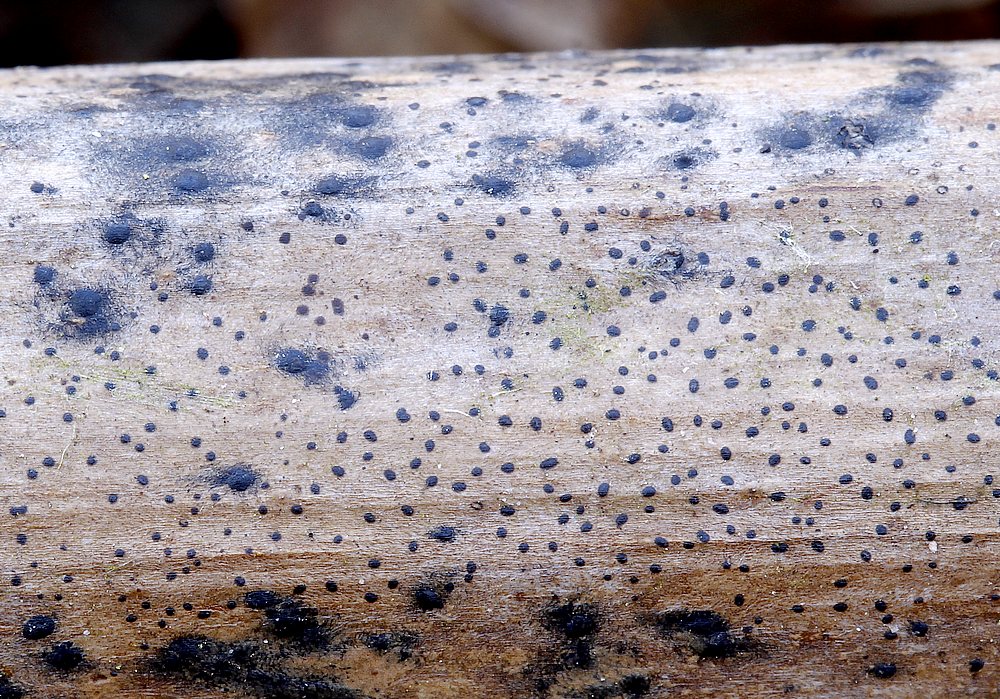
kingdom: Fungi
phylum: Ascomycota
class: Leotiomycetes
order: Helotiales
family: Ploettnerulaceae
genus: Cadophora
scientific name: Cadophora fallopiae
